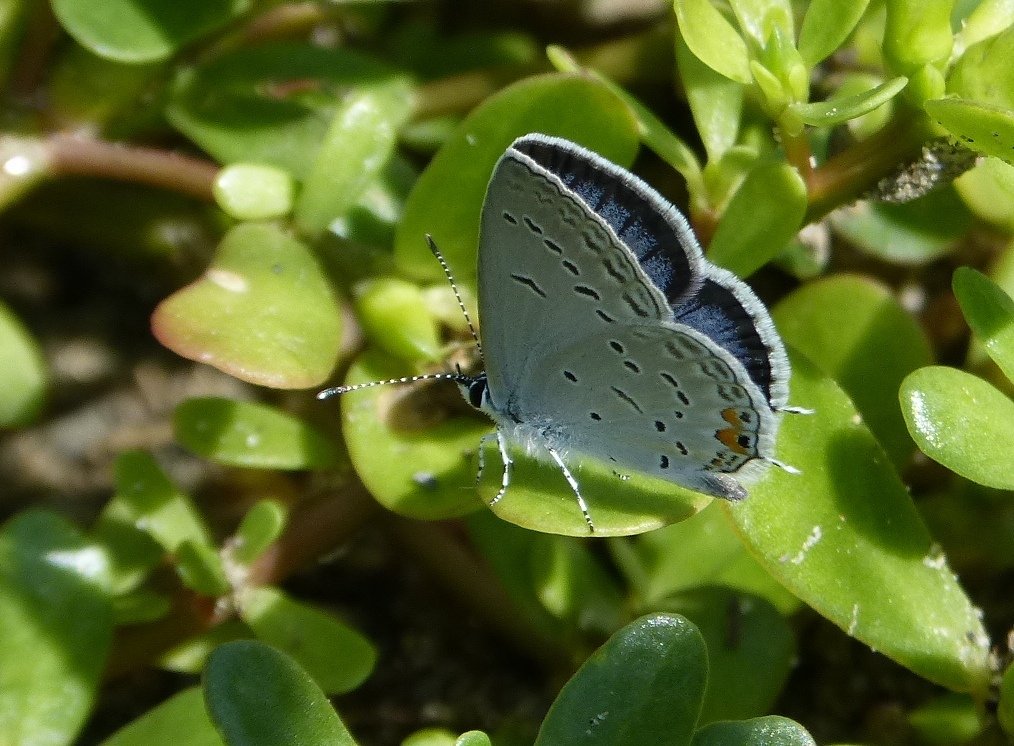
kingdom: Animalia
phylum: Arthropoda
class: Insecta
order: Lepidoptera
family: Lycaenidae
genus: Elkalyce
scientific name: Elkalyce comyntas
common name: Eastern Tailed-Blue
